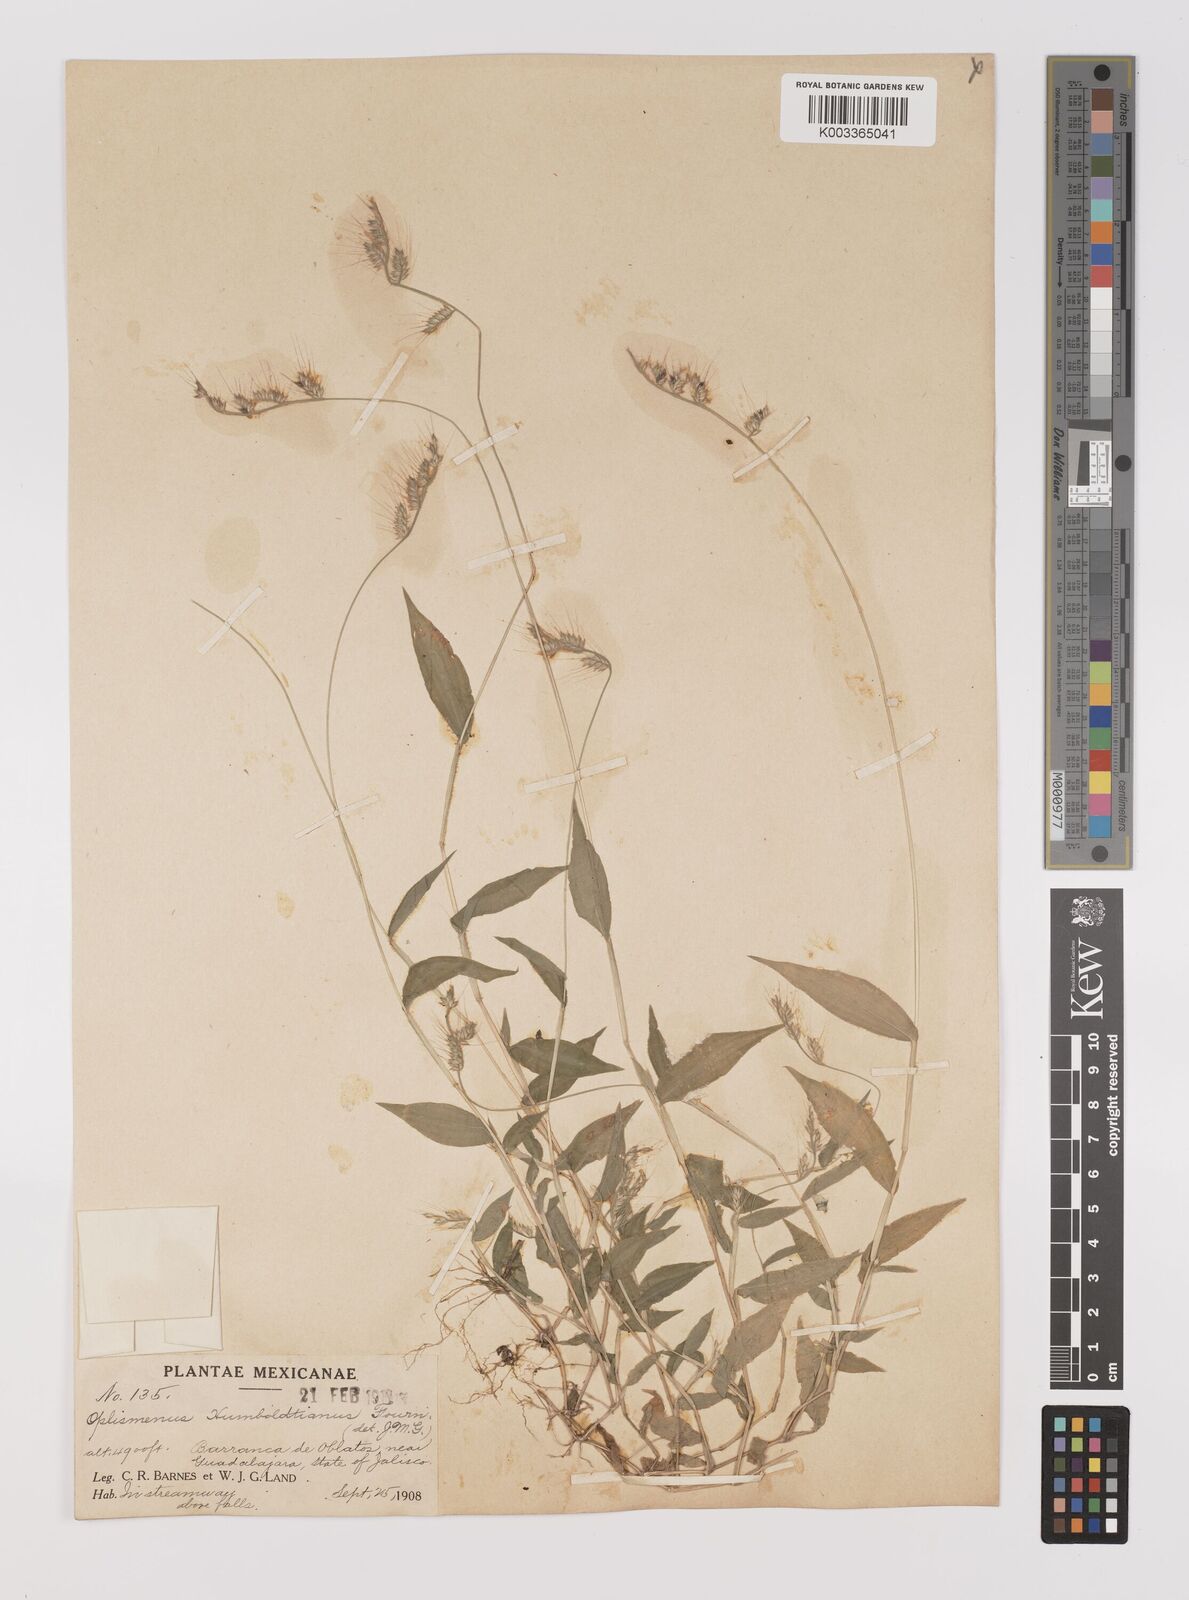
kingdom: Plantae
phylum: Tracheophyta
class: Liliopsida
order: Poales
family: Poaceae
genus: Oplismenus
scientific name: Oplismenus burmanni
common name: Burmann's basketgrass
